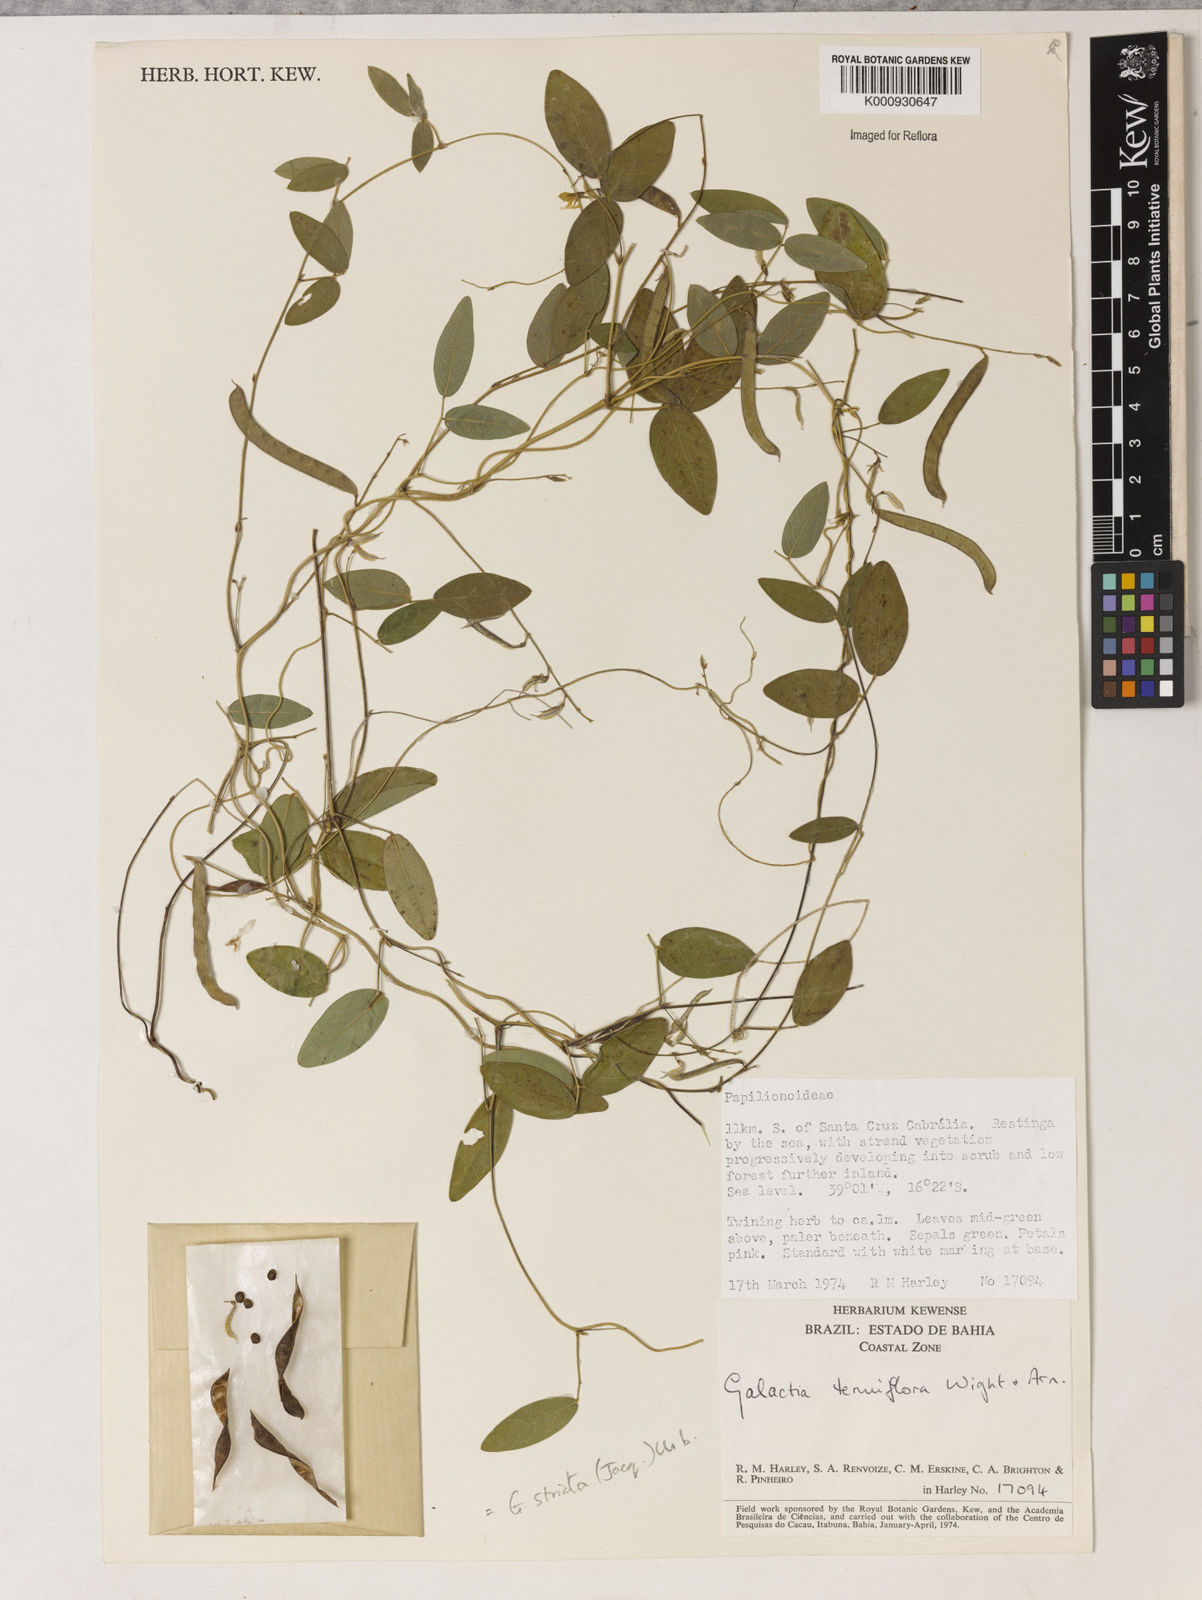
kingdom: Plantae
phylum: Tracheophyta
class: Magnoliopsida
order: Fabales
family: Fabaceae
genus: Galactia
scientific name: Galactia striata
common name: Florida hammock milkpea
